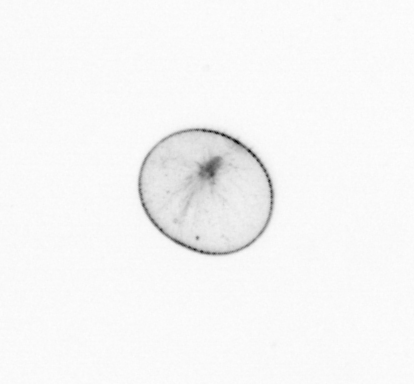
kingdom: Chromista
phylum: Myzozoa
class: Dinophyceae
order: Noctilucales
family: Noctilucaceae
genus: Noctiluca
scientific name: Noctiluca scintillans
